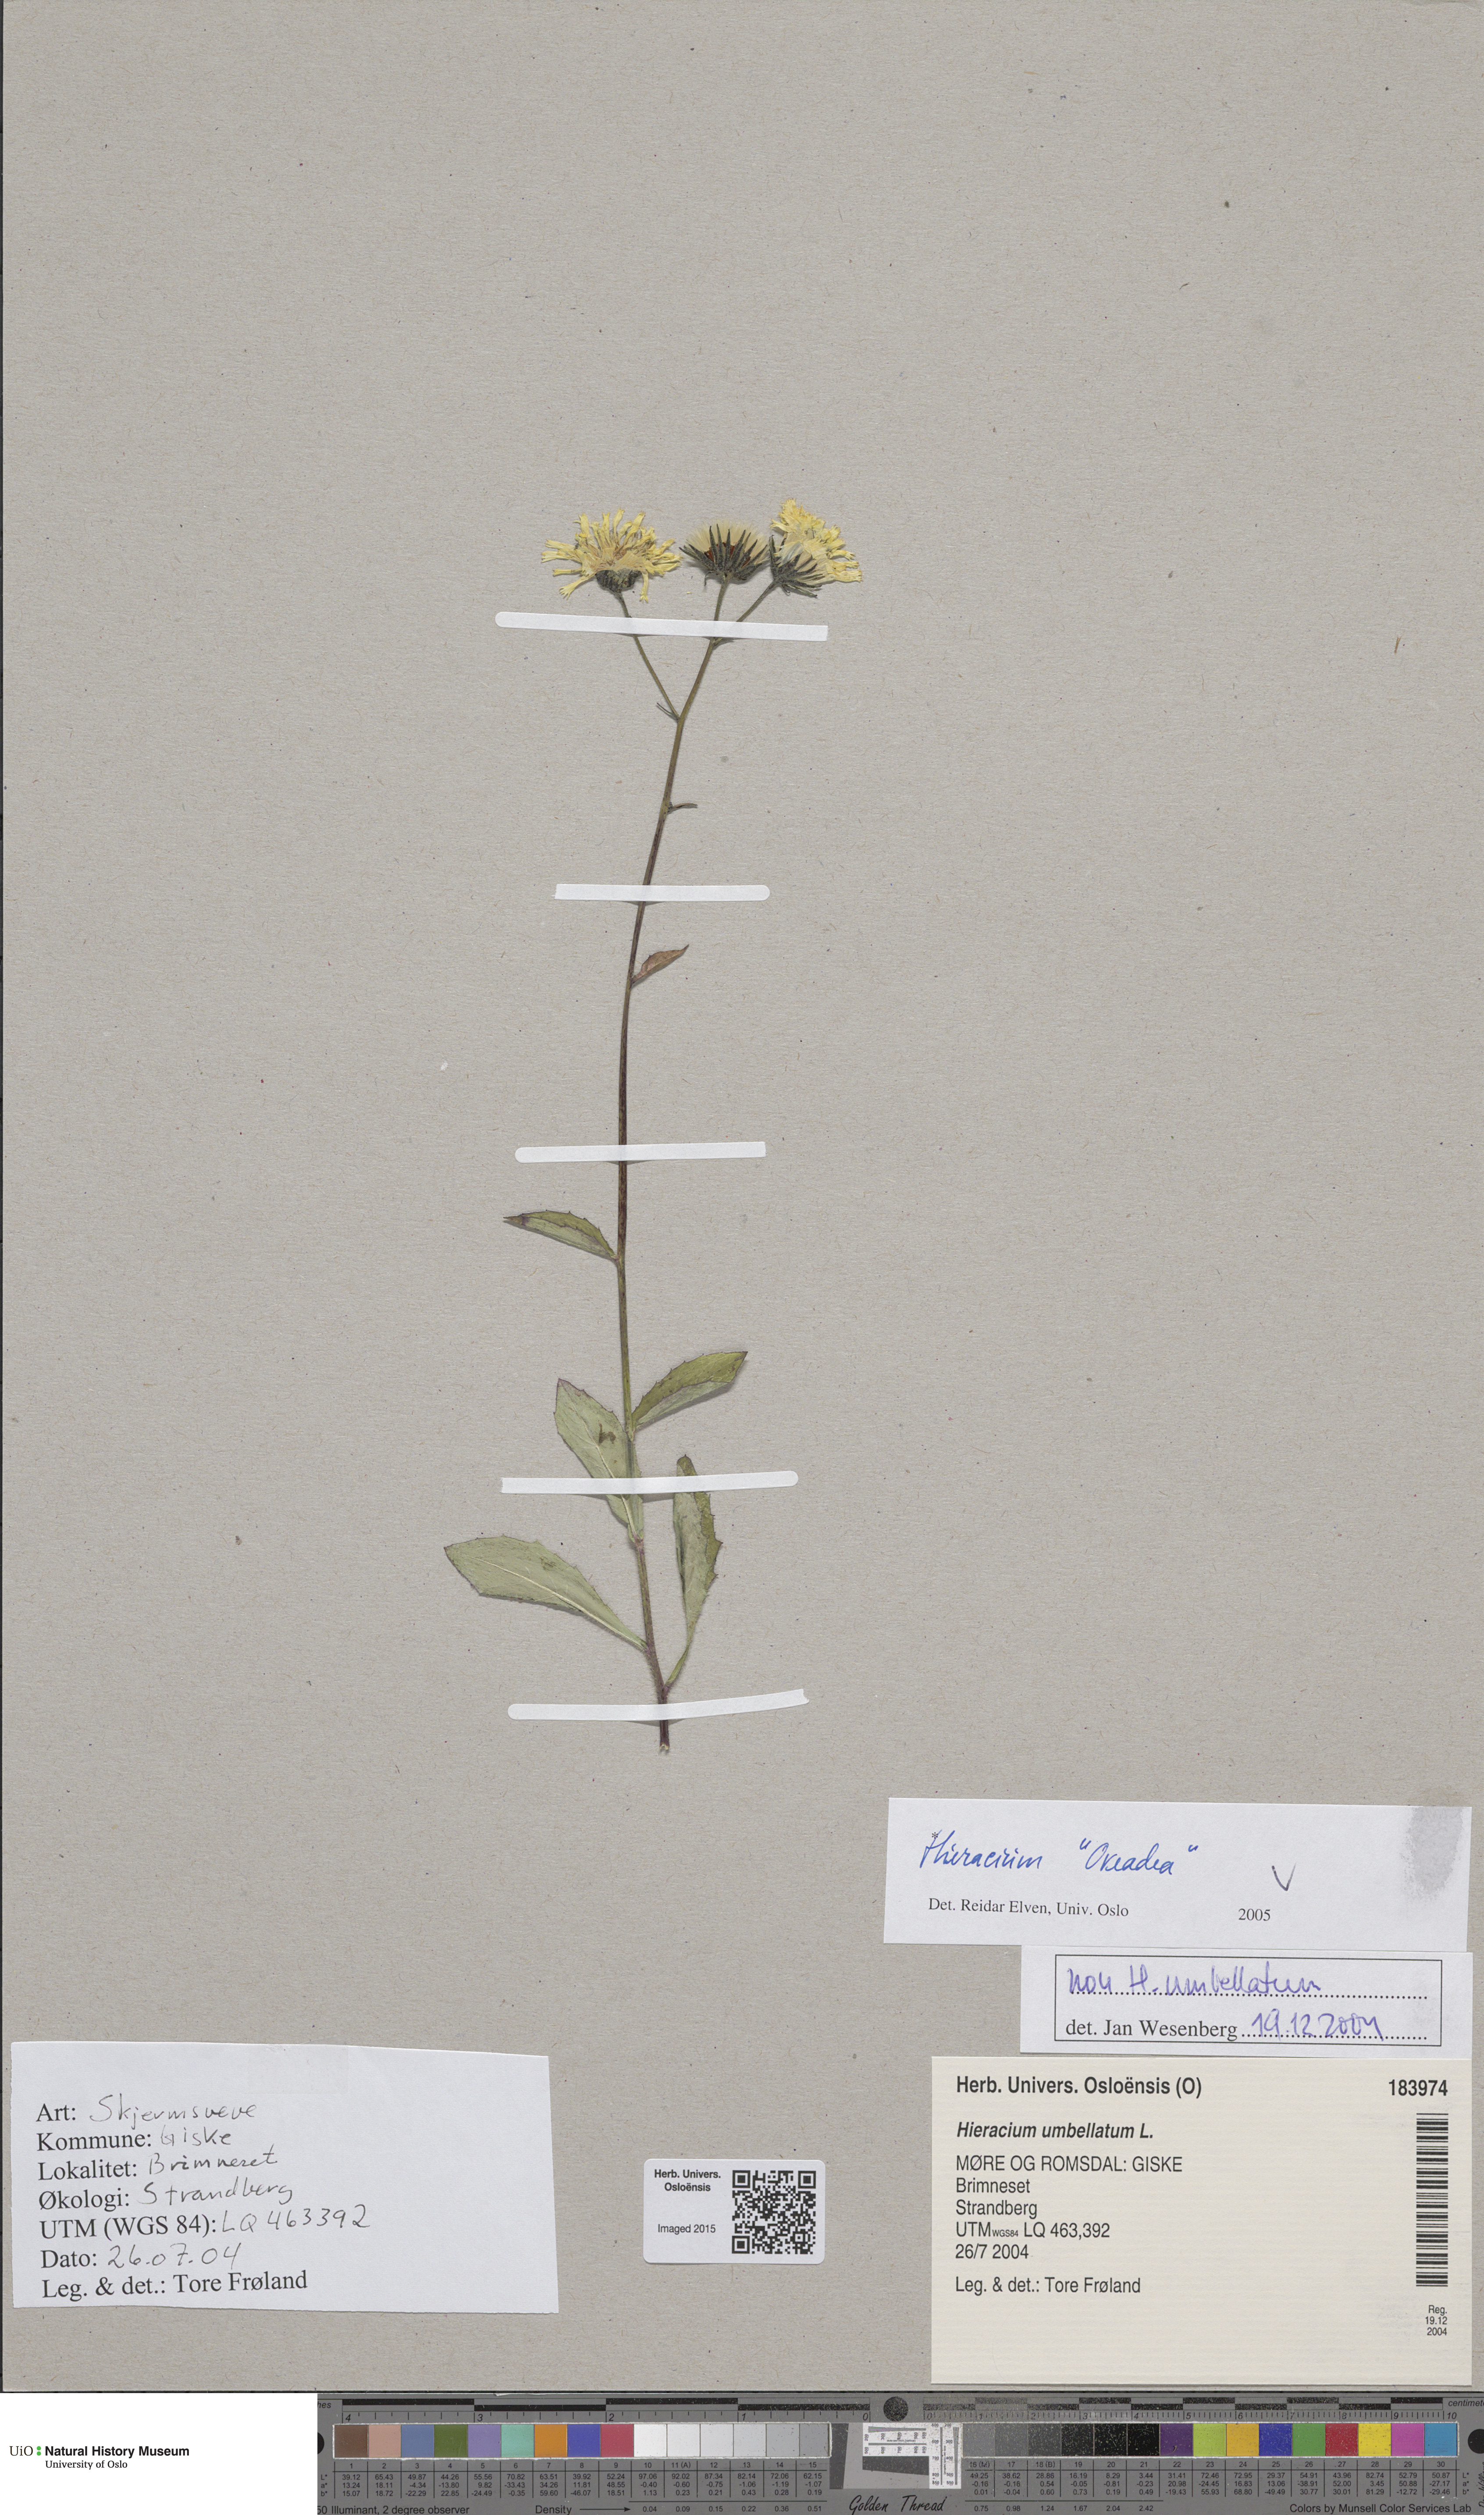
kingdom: Plantae
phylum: Tracheophyta
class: Magnoliopsida
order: Asterales
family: Asteraceae
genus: Hieracium
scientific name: Hieracium
